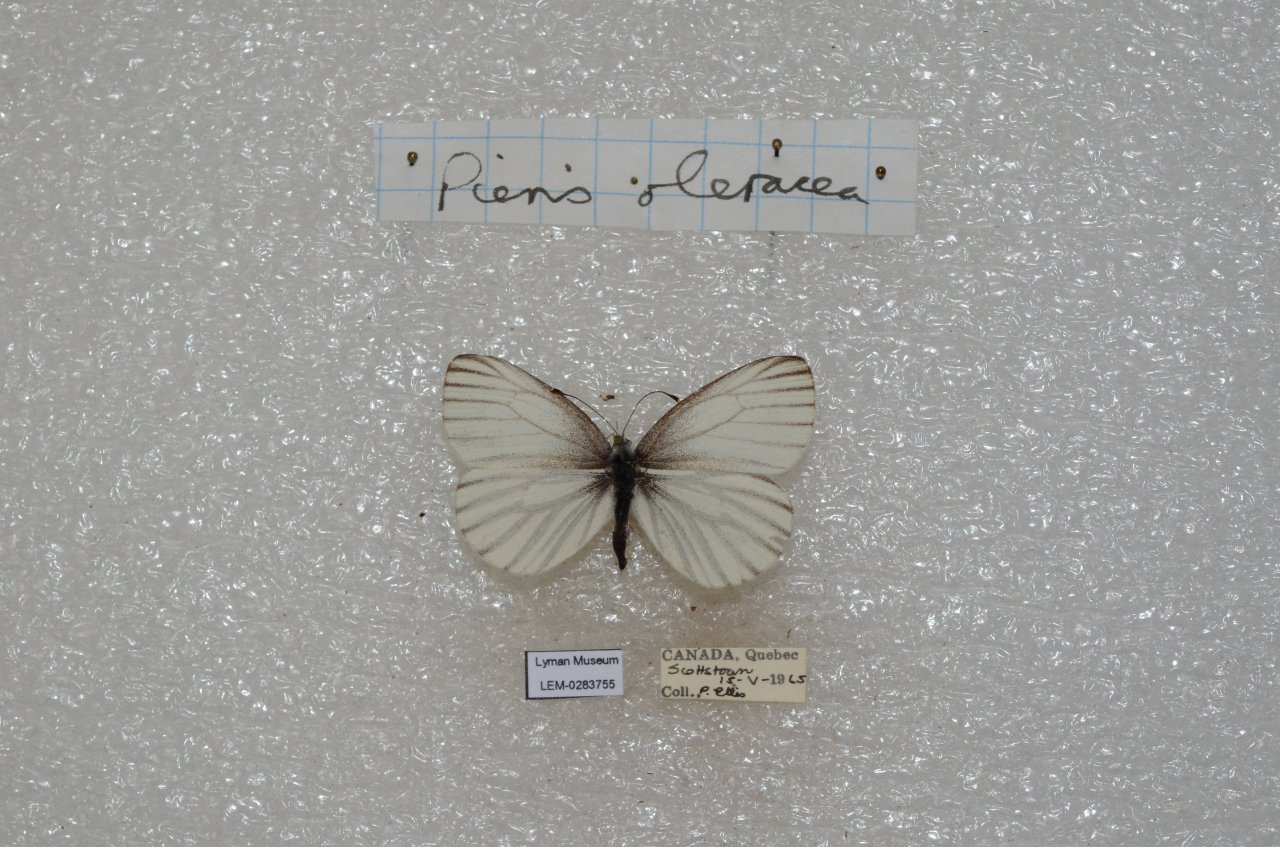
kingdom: Animalia
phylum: Arthropoda
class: Insecta
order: Lepidoptera
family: Pieridae
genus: Pieris
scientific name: Pieris oleracea
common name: Mustard White
